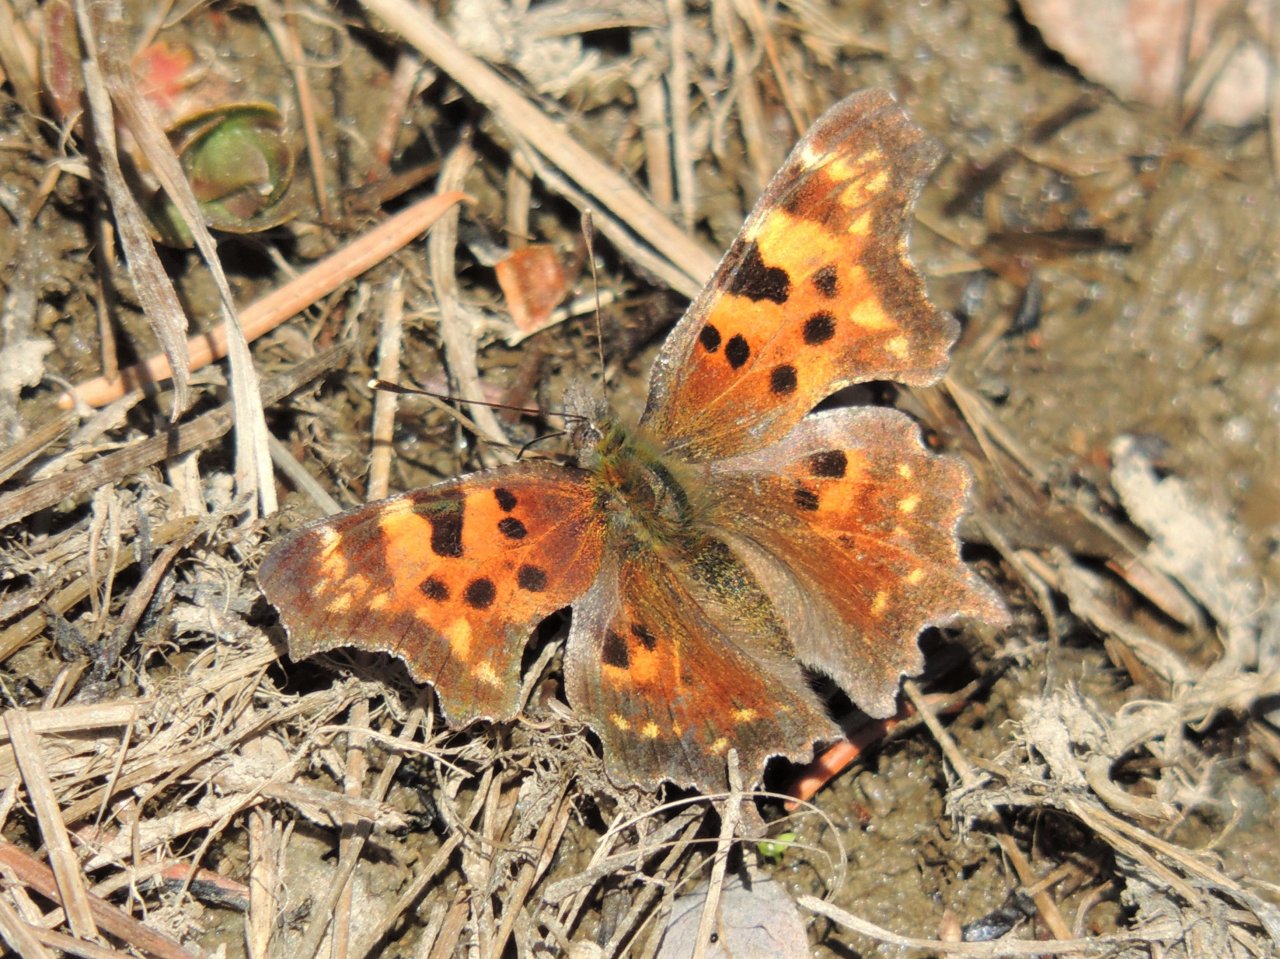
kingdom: Animalia
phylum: Arthropoda
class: Insecta
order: Lepidoptera
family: Nymphalidae
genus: Polygonia
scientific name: Polygonia faunus
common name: Green Comma
